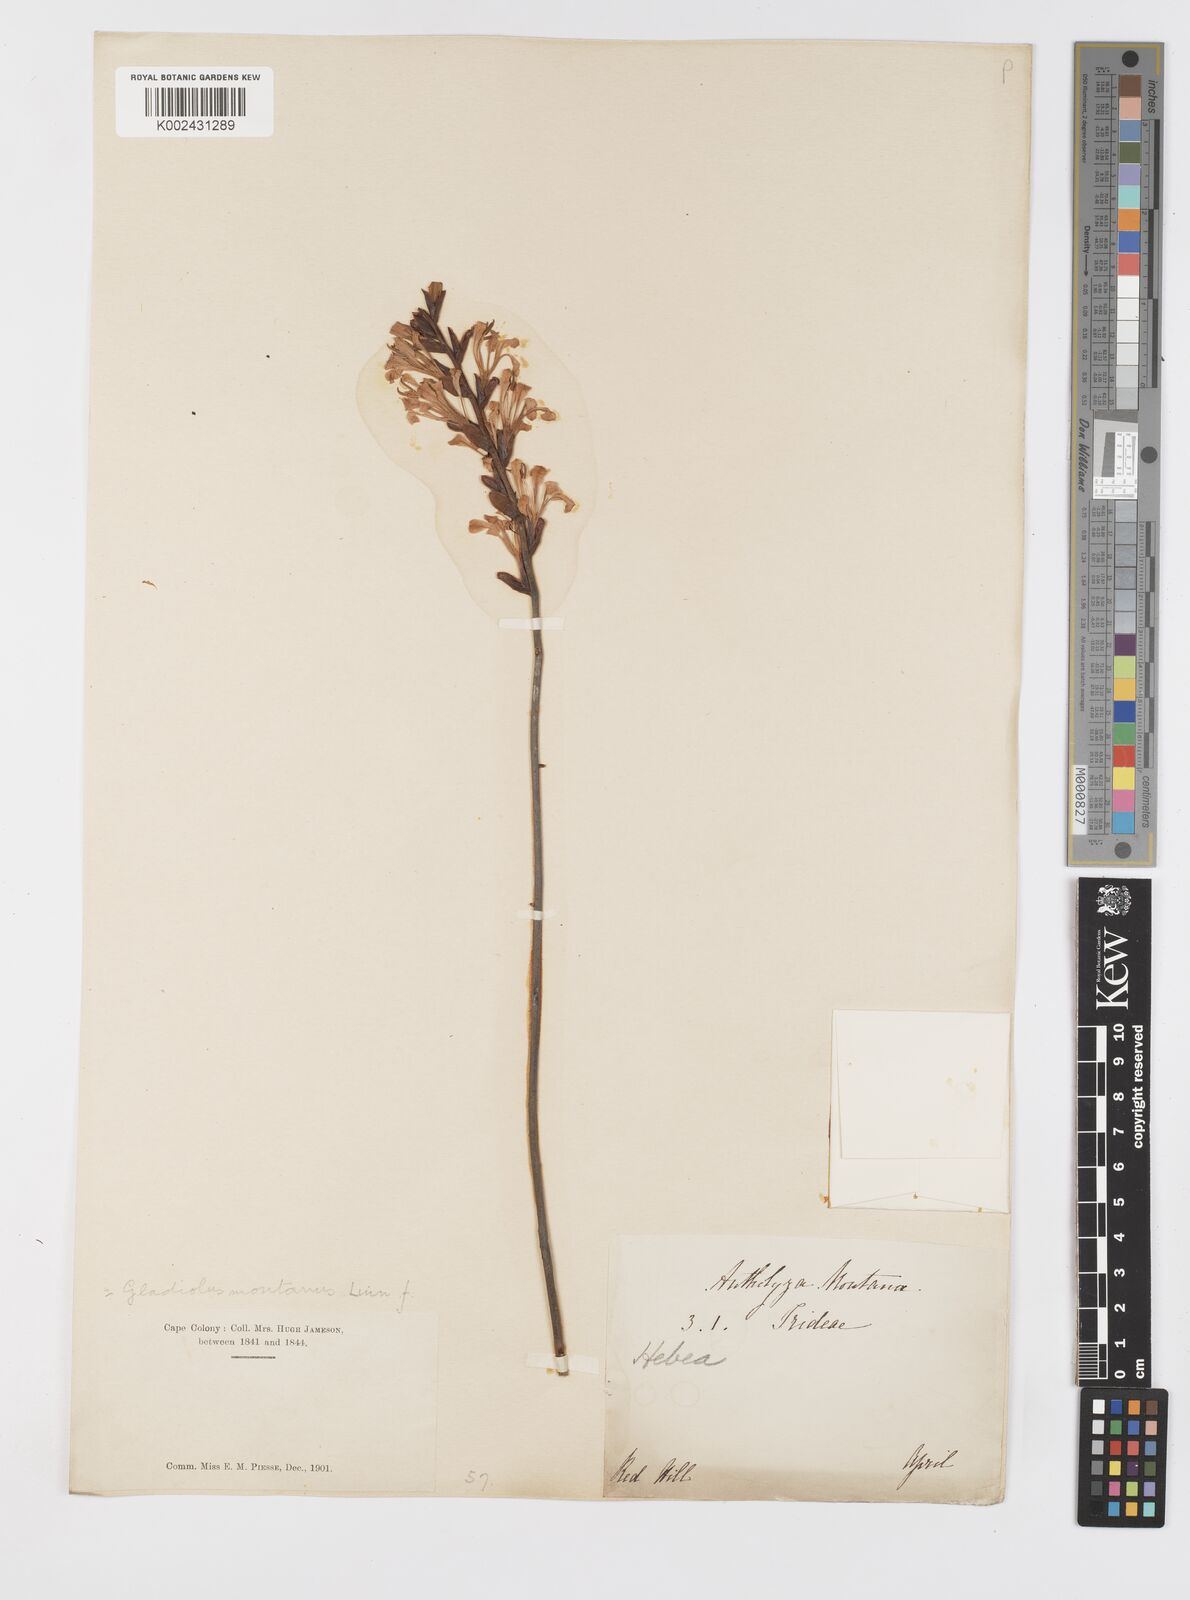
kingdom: Plantae
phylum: Tracheophyta
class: Liliopsida
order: Asparagales
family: Iridaceae
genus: Tritoniopsis
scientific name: Tritoniopsis dodii
